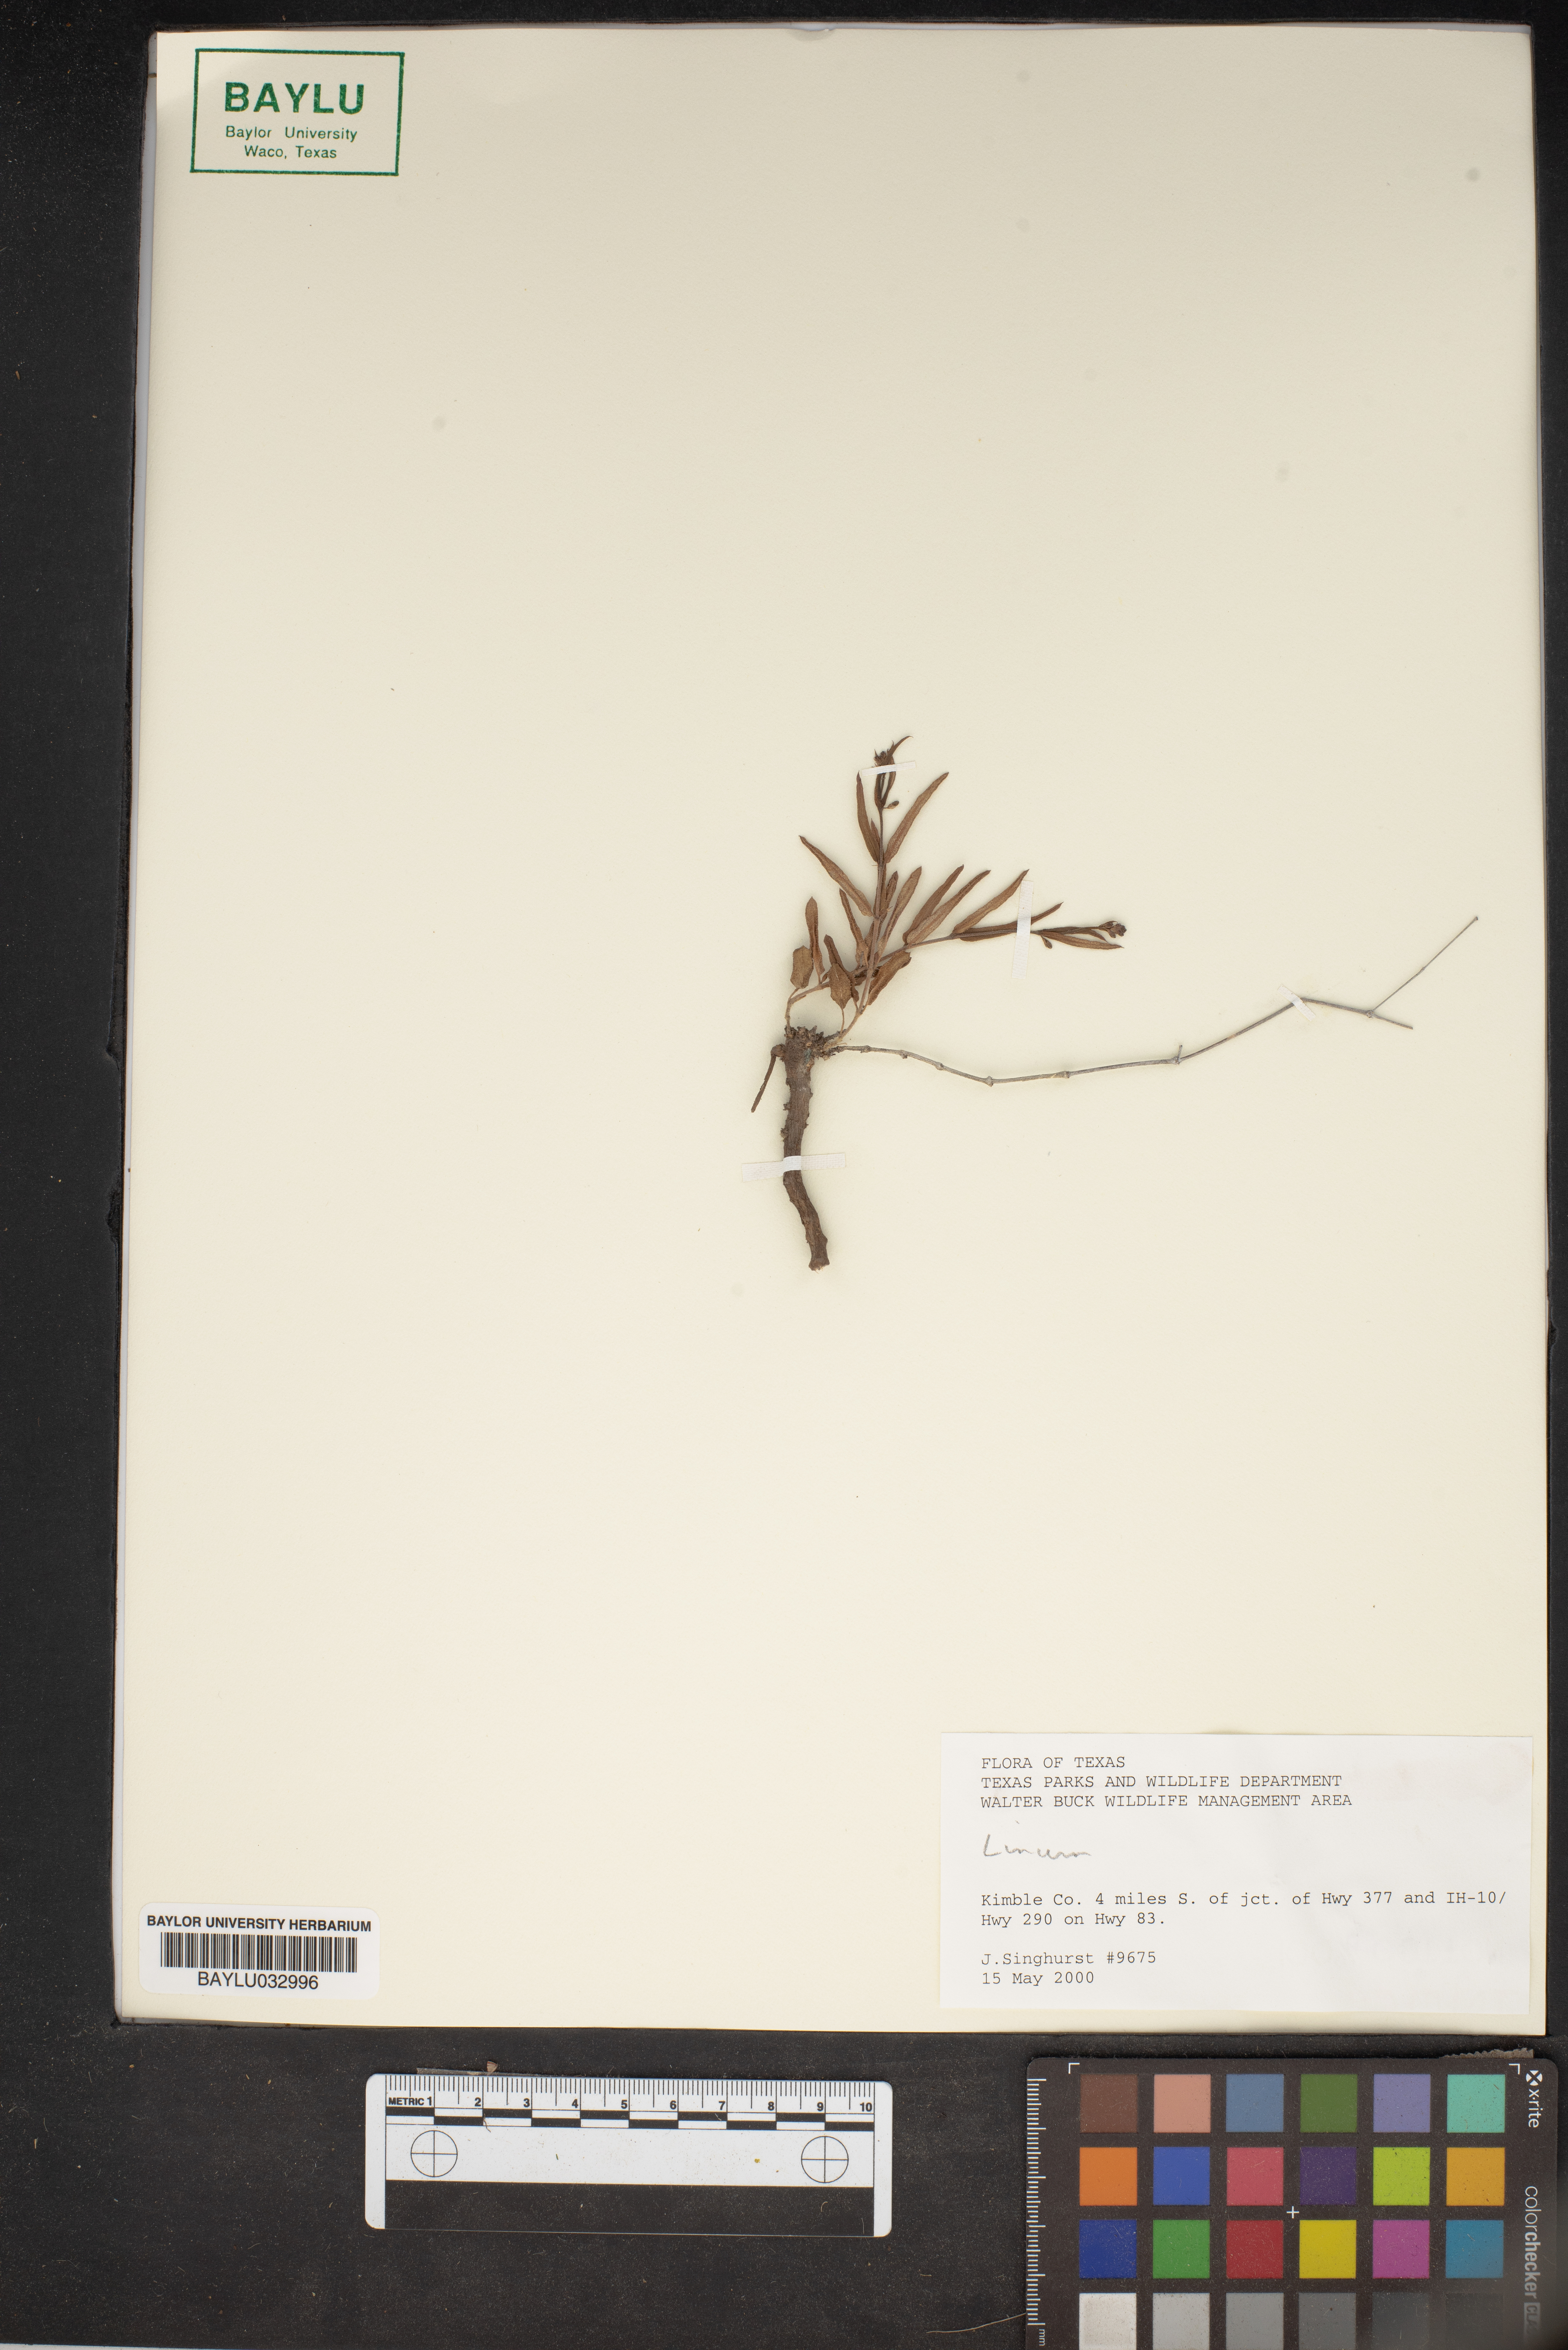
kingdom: Plantae
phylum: Tracheophyta
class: Magnoliopsida
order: Malpighiales
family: Linaceae
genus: Linum
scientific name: Linum
